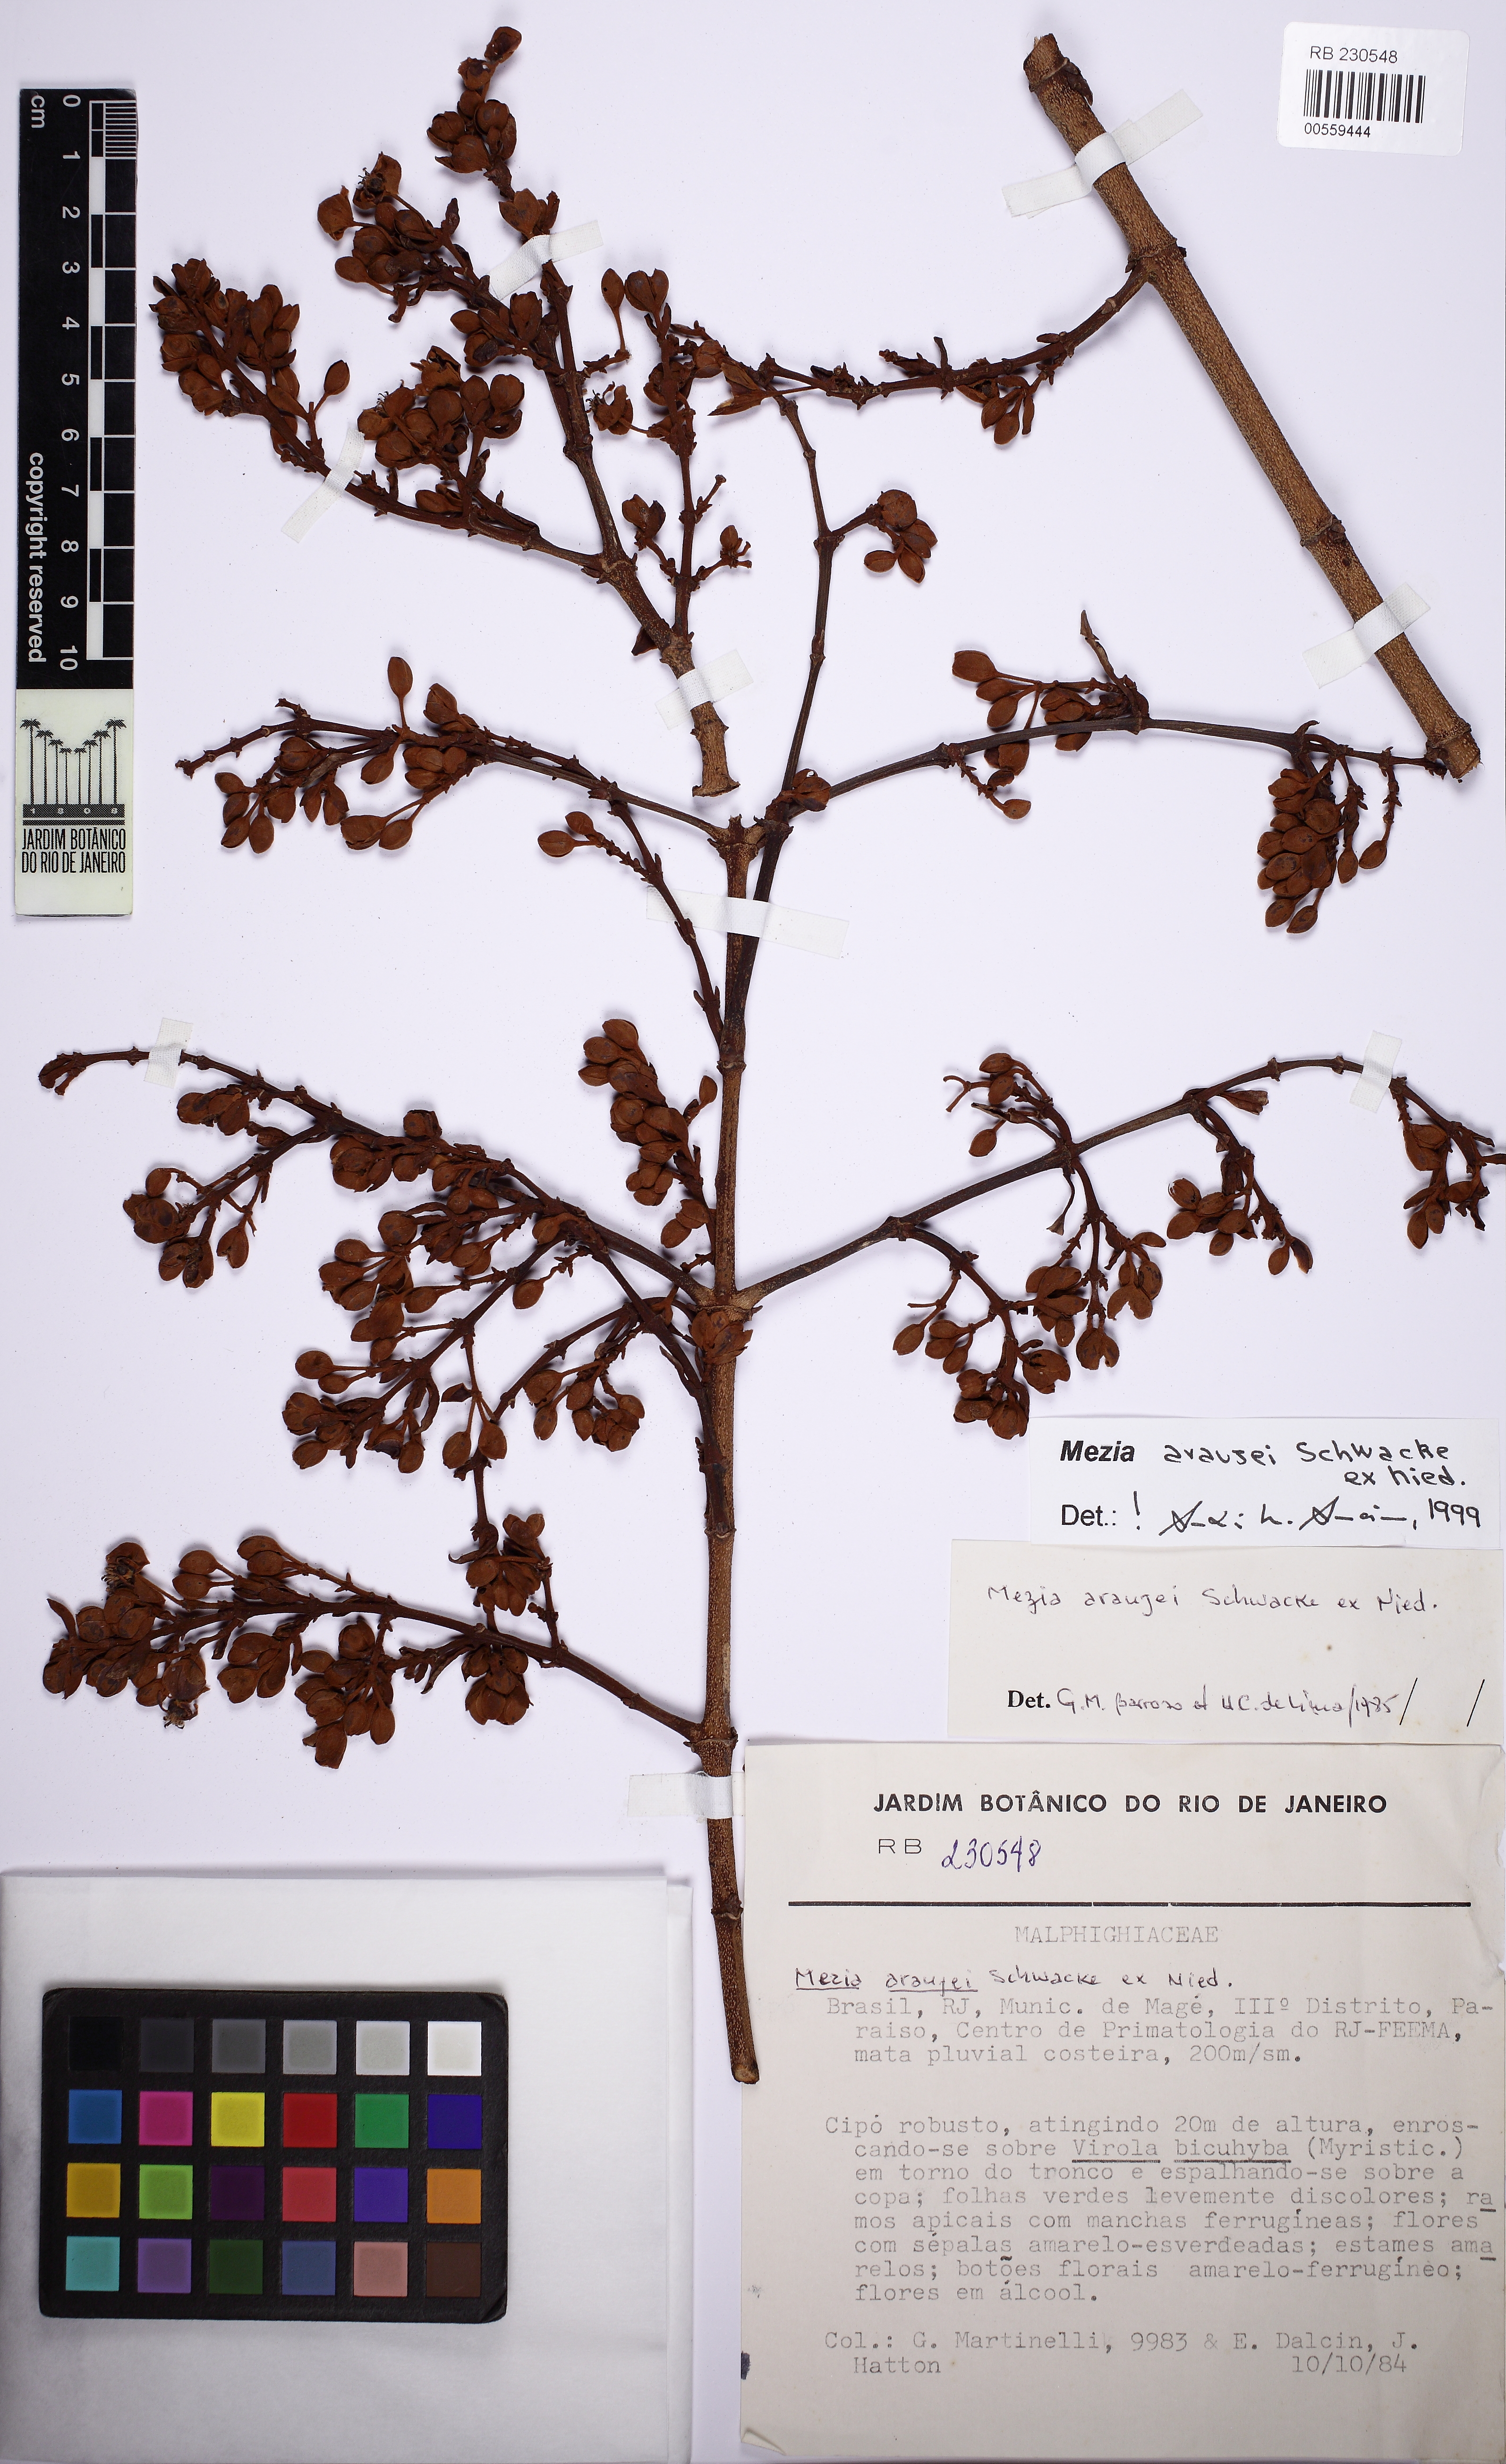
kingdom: Plantae
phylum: Tracheophyta
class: Magnoliopsida
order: Malpighiales
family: Malpighiaceae
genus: Mezia
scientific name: Mezia araujoi
